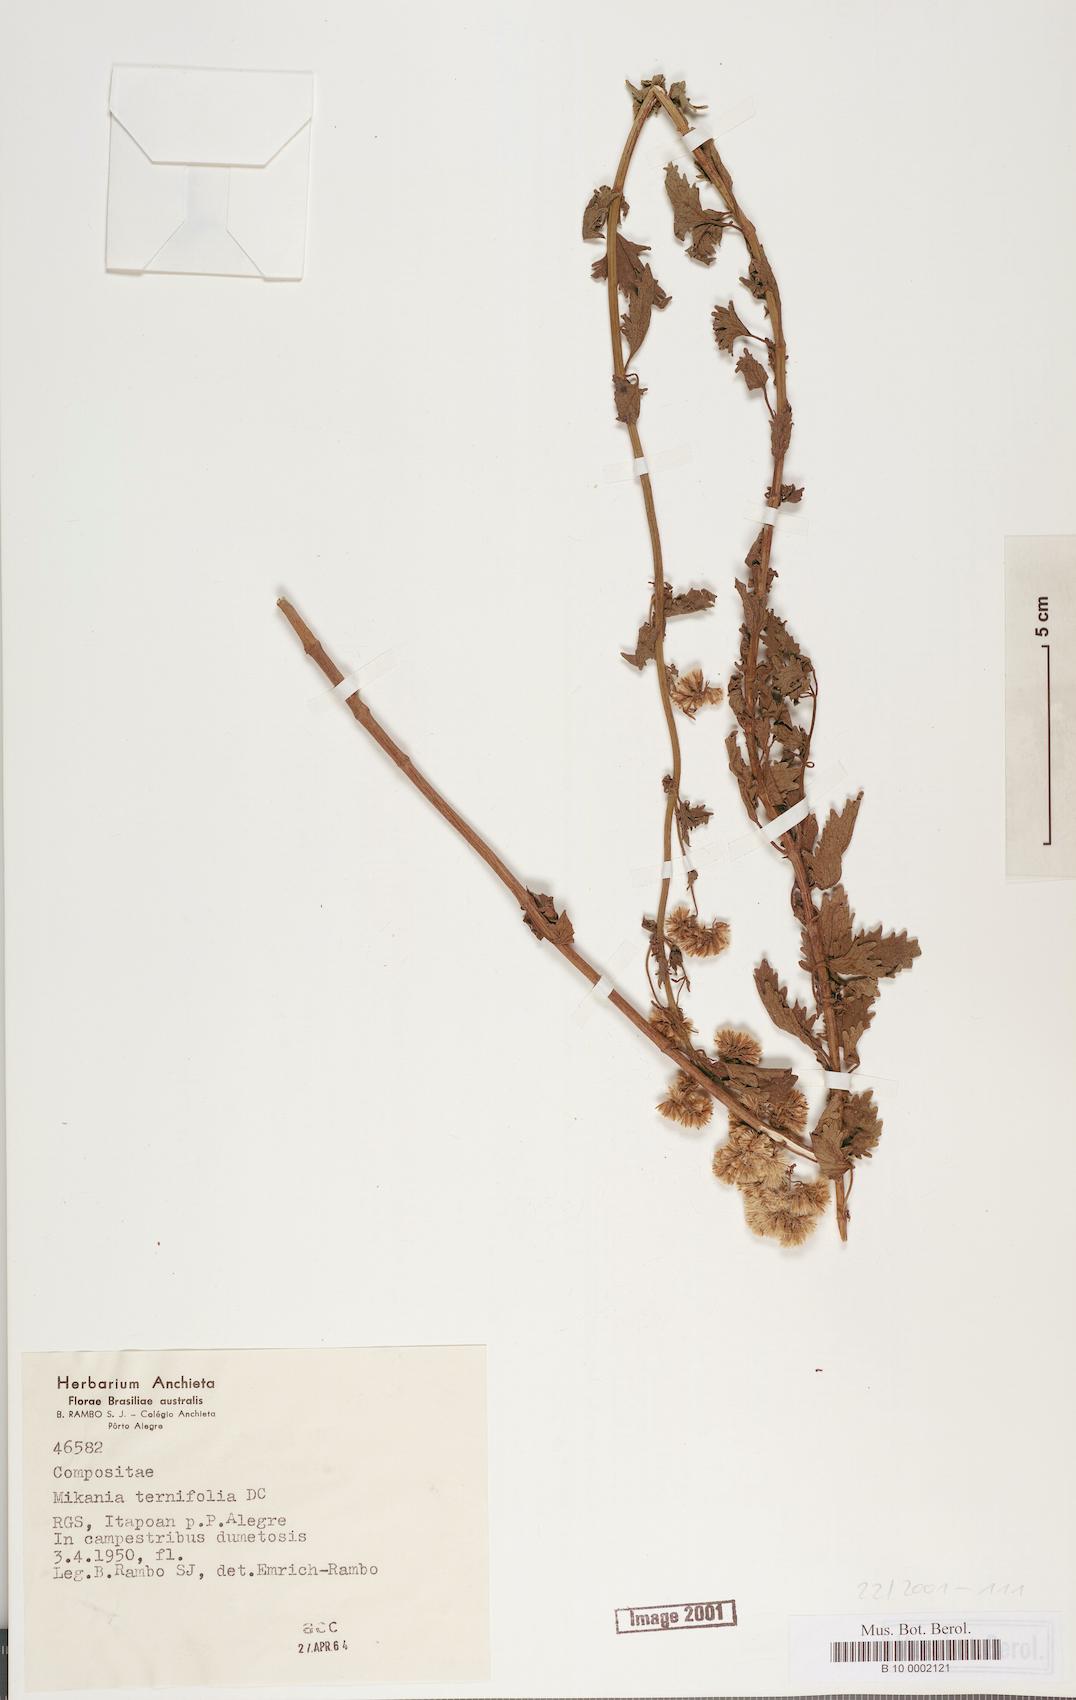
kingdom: Plantae
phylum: Tracheophyta
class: Magnoliopsida
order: Asterales
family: Asteraceae
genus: Mikania
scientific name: Mikania fulva
